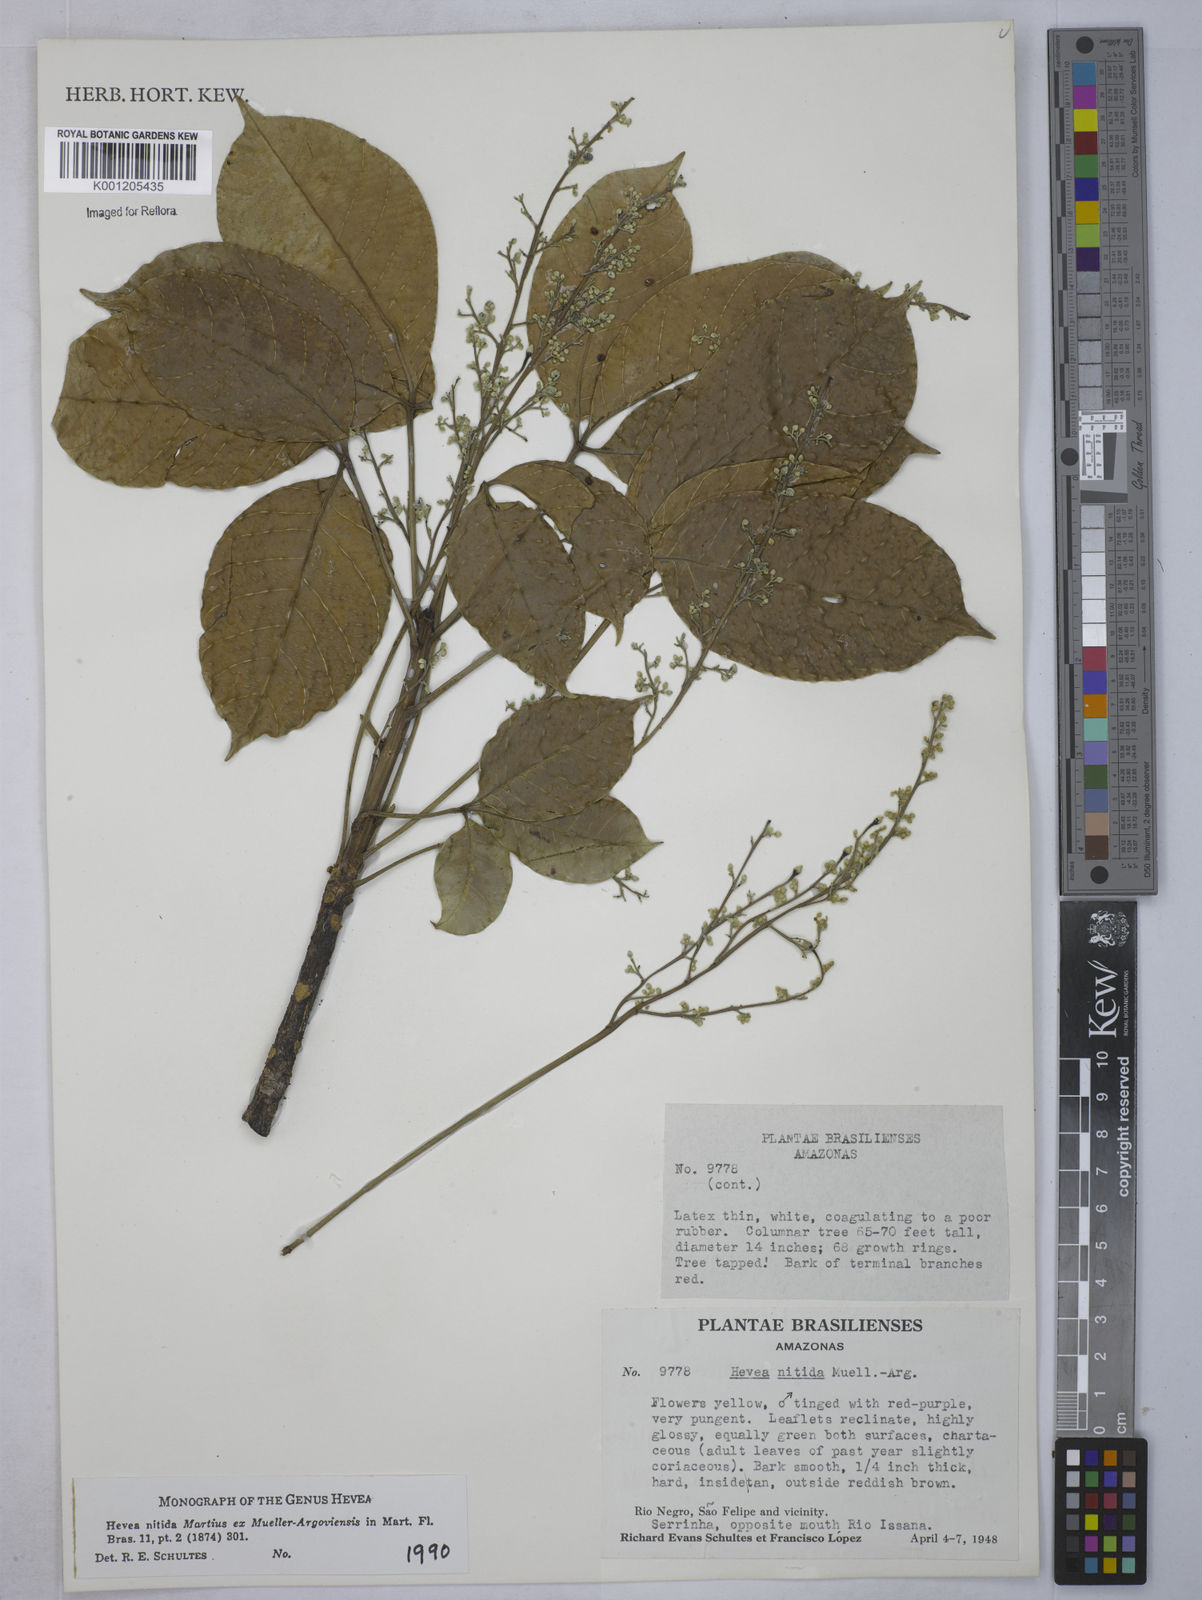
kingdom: Plantae
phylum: Tracheophyta
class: Magnoliopsida
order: Malpighiales
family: Euphorbiaceae
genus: Hevea
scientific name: Hevea
